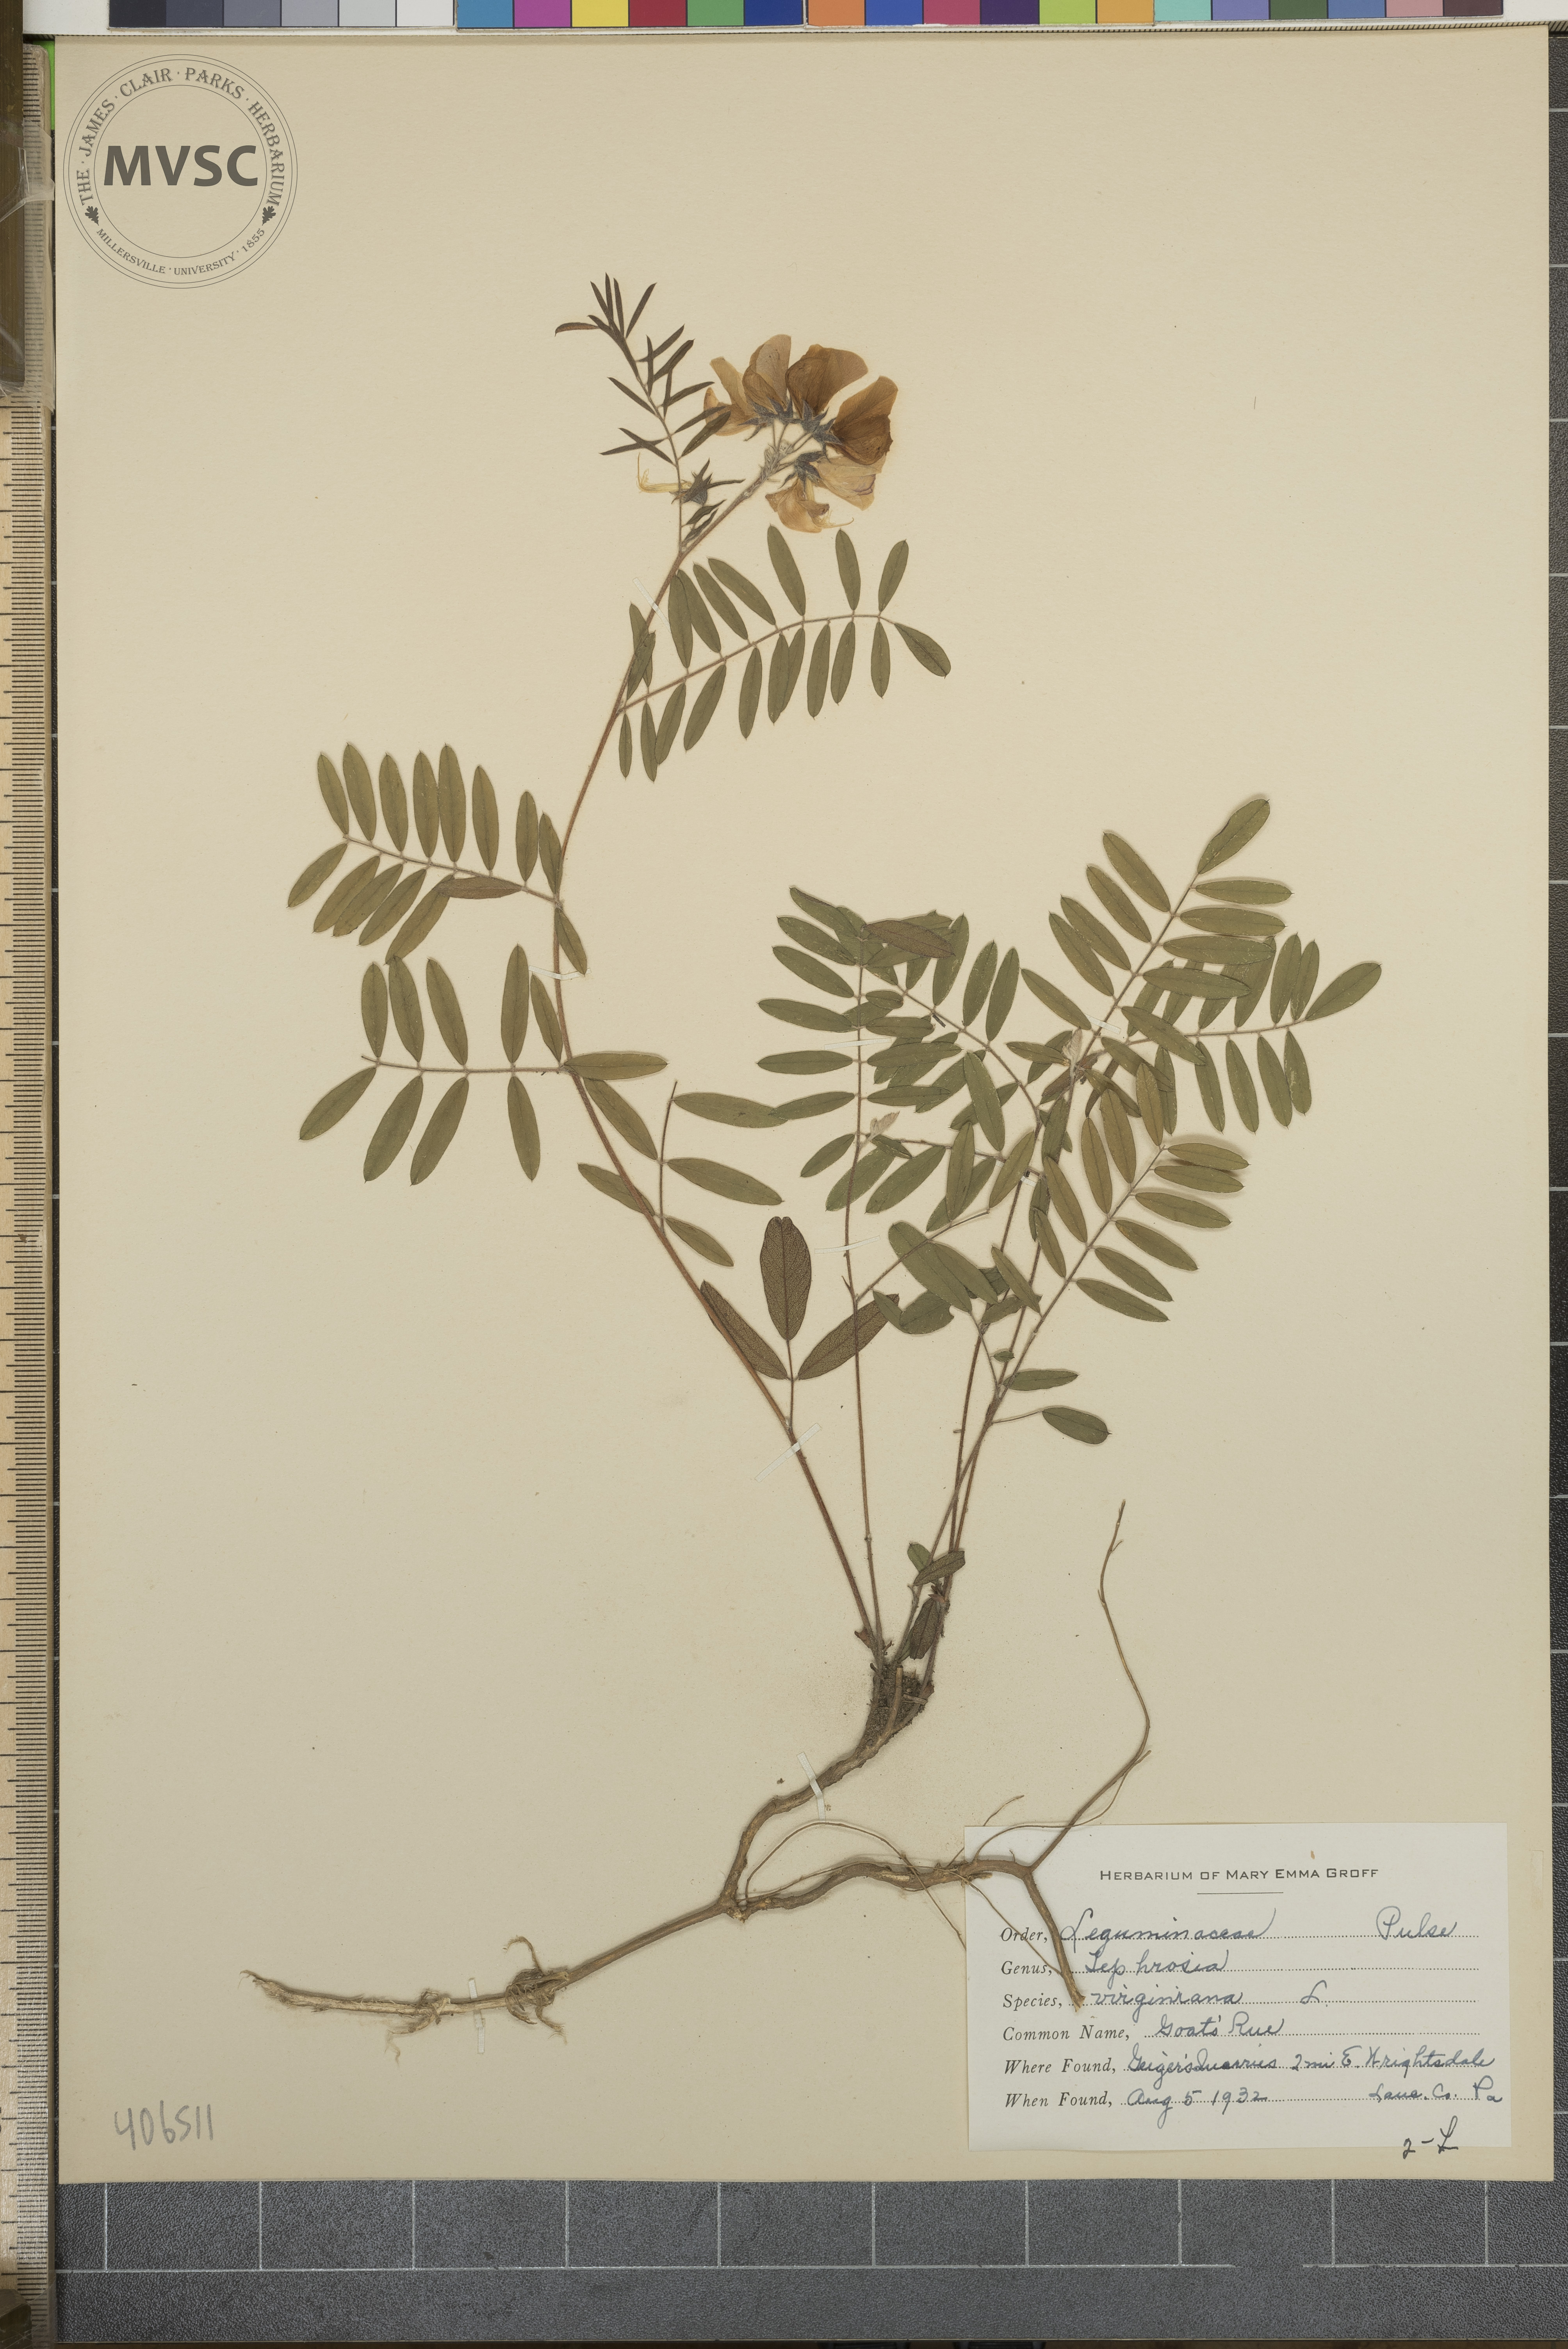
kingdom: Plantae
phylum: Tracheophyta
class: Magnoliopsida
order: Fabales
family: Fabaceae
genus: Tephrosia
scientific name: Tephrosia virginiana
